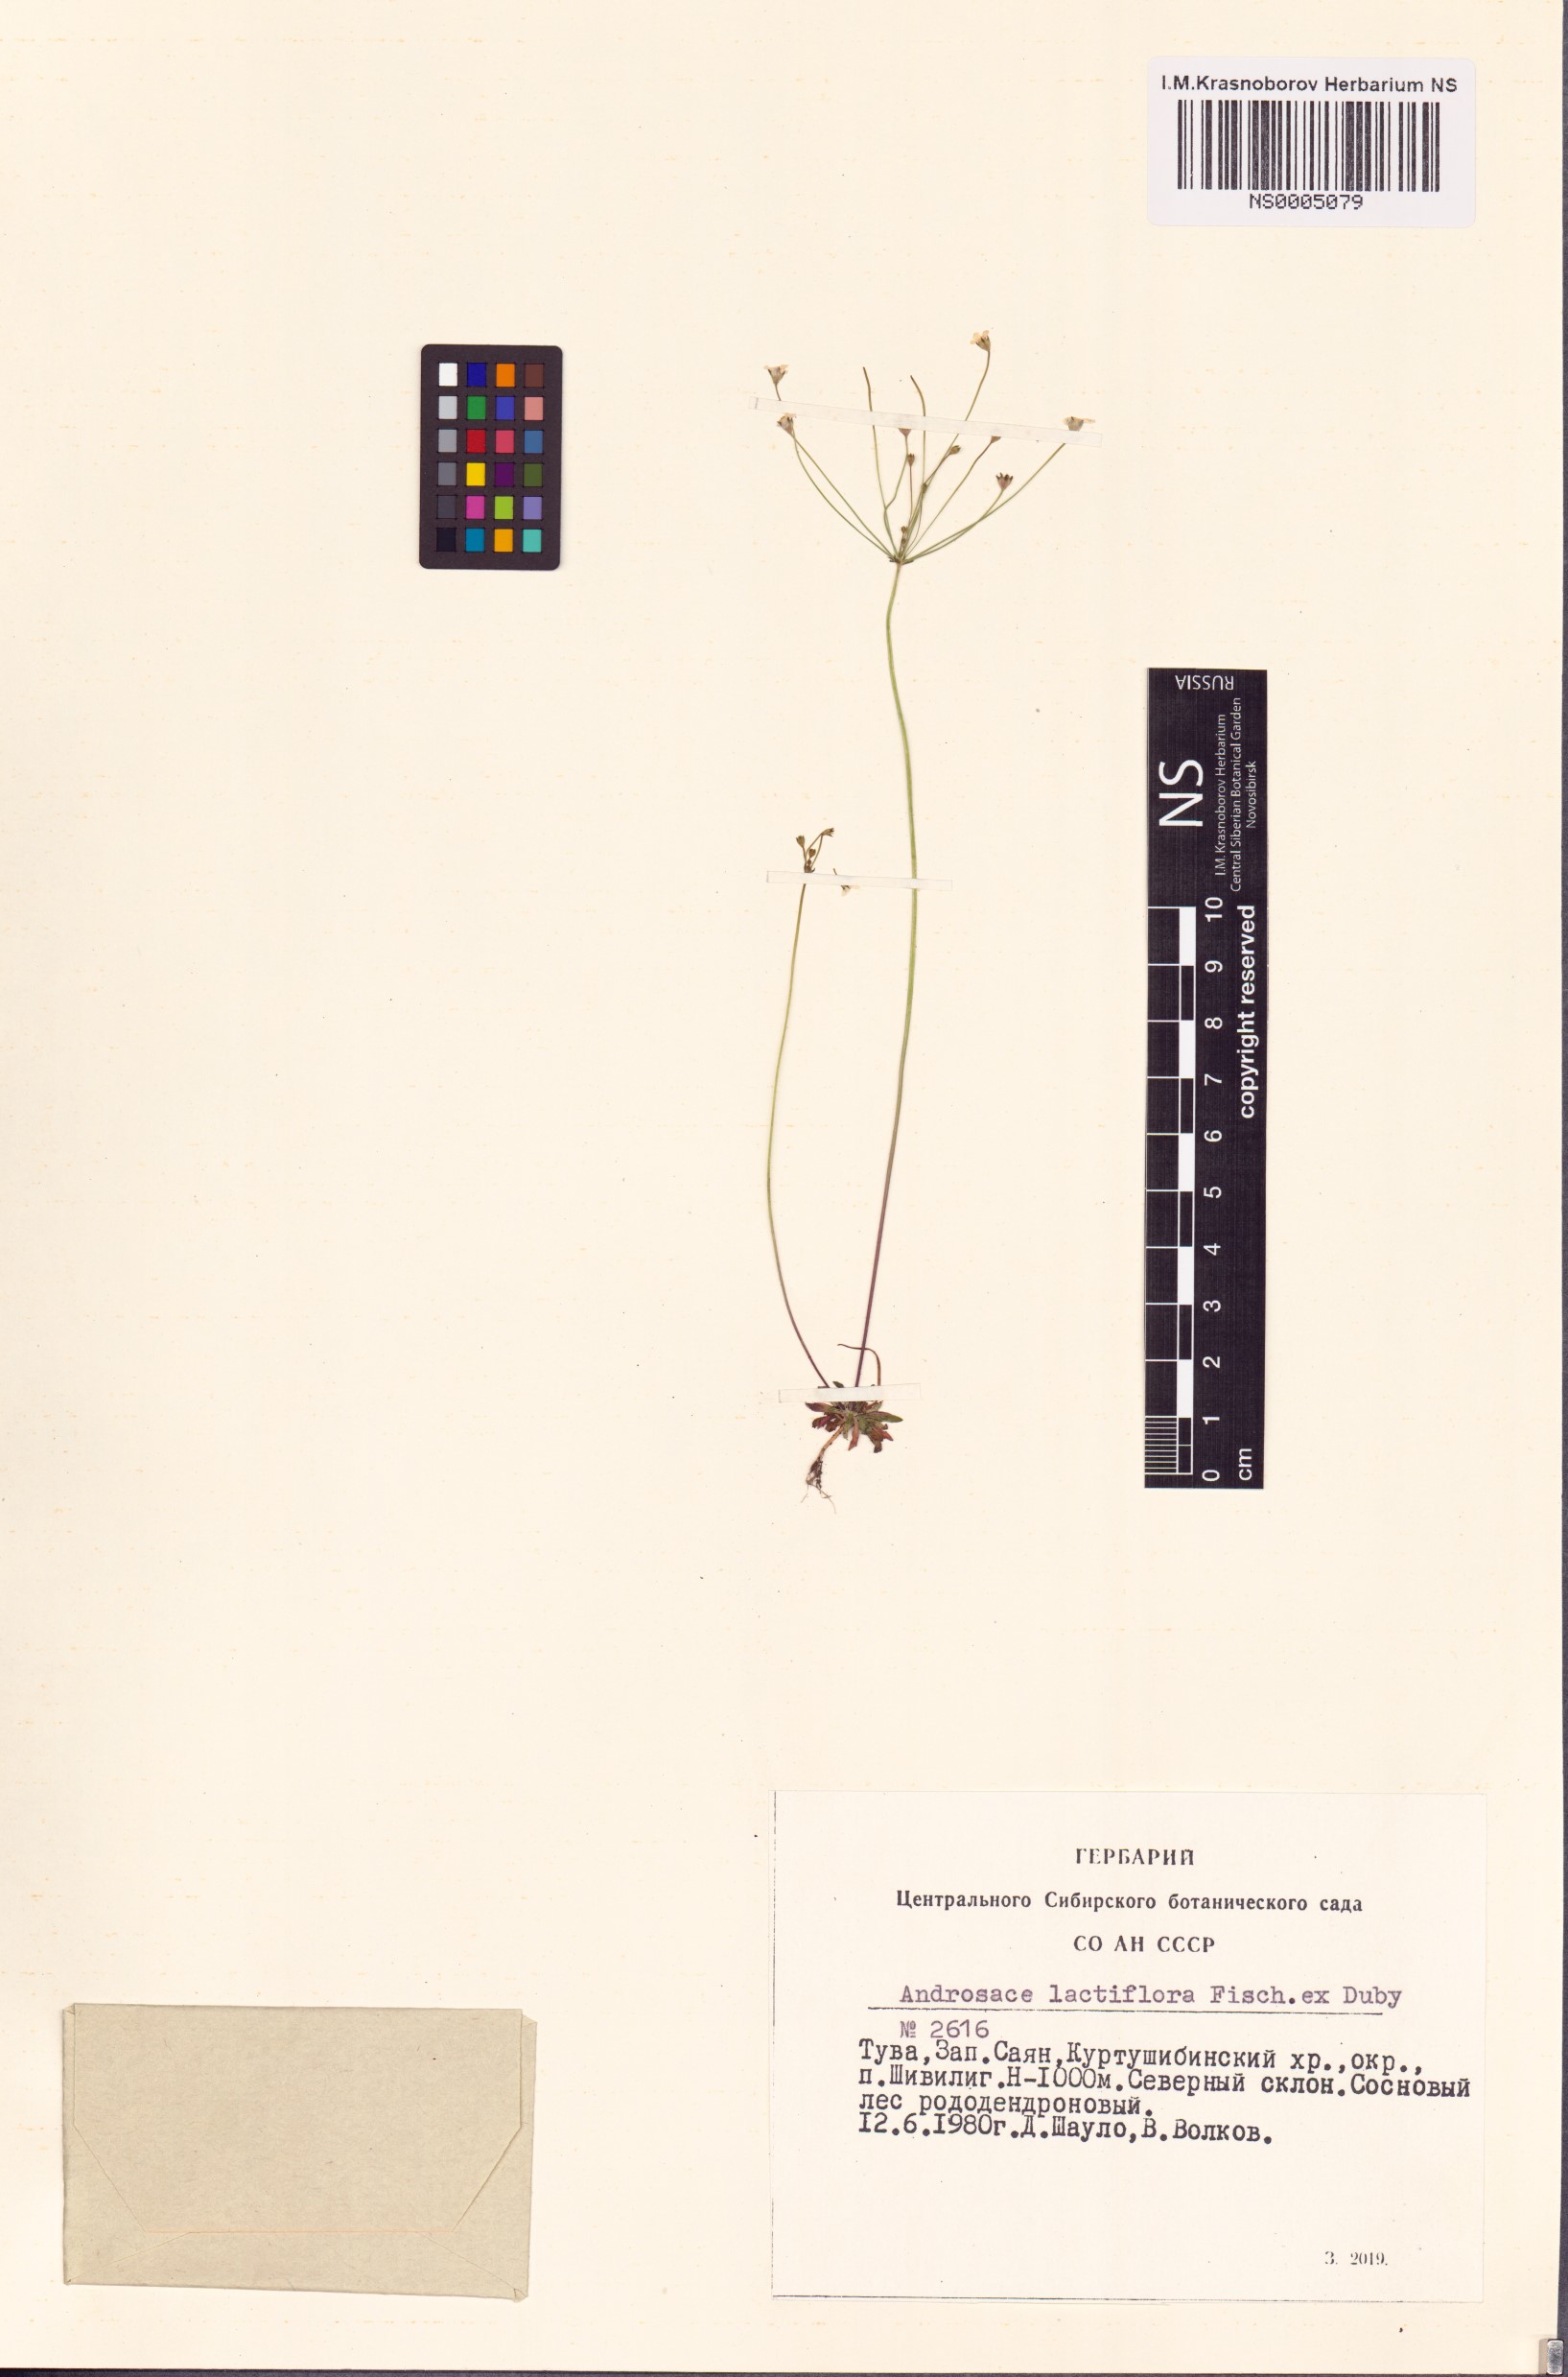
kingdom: Plantae
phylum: Tracheophyta
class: Magnoliopsida
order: Ericales
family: Primulaceae
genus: Androsace
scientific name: Androsace lactiflora
